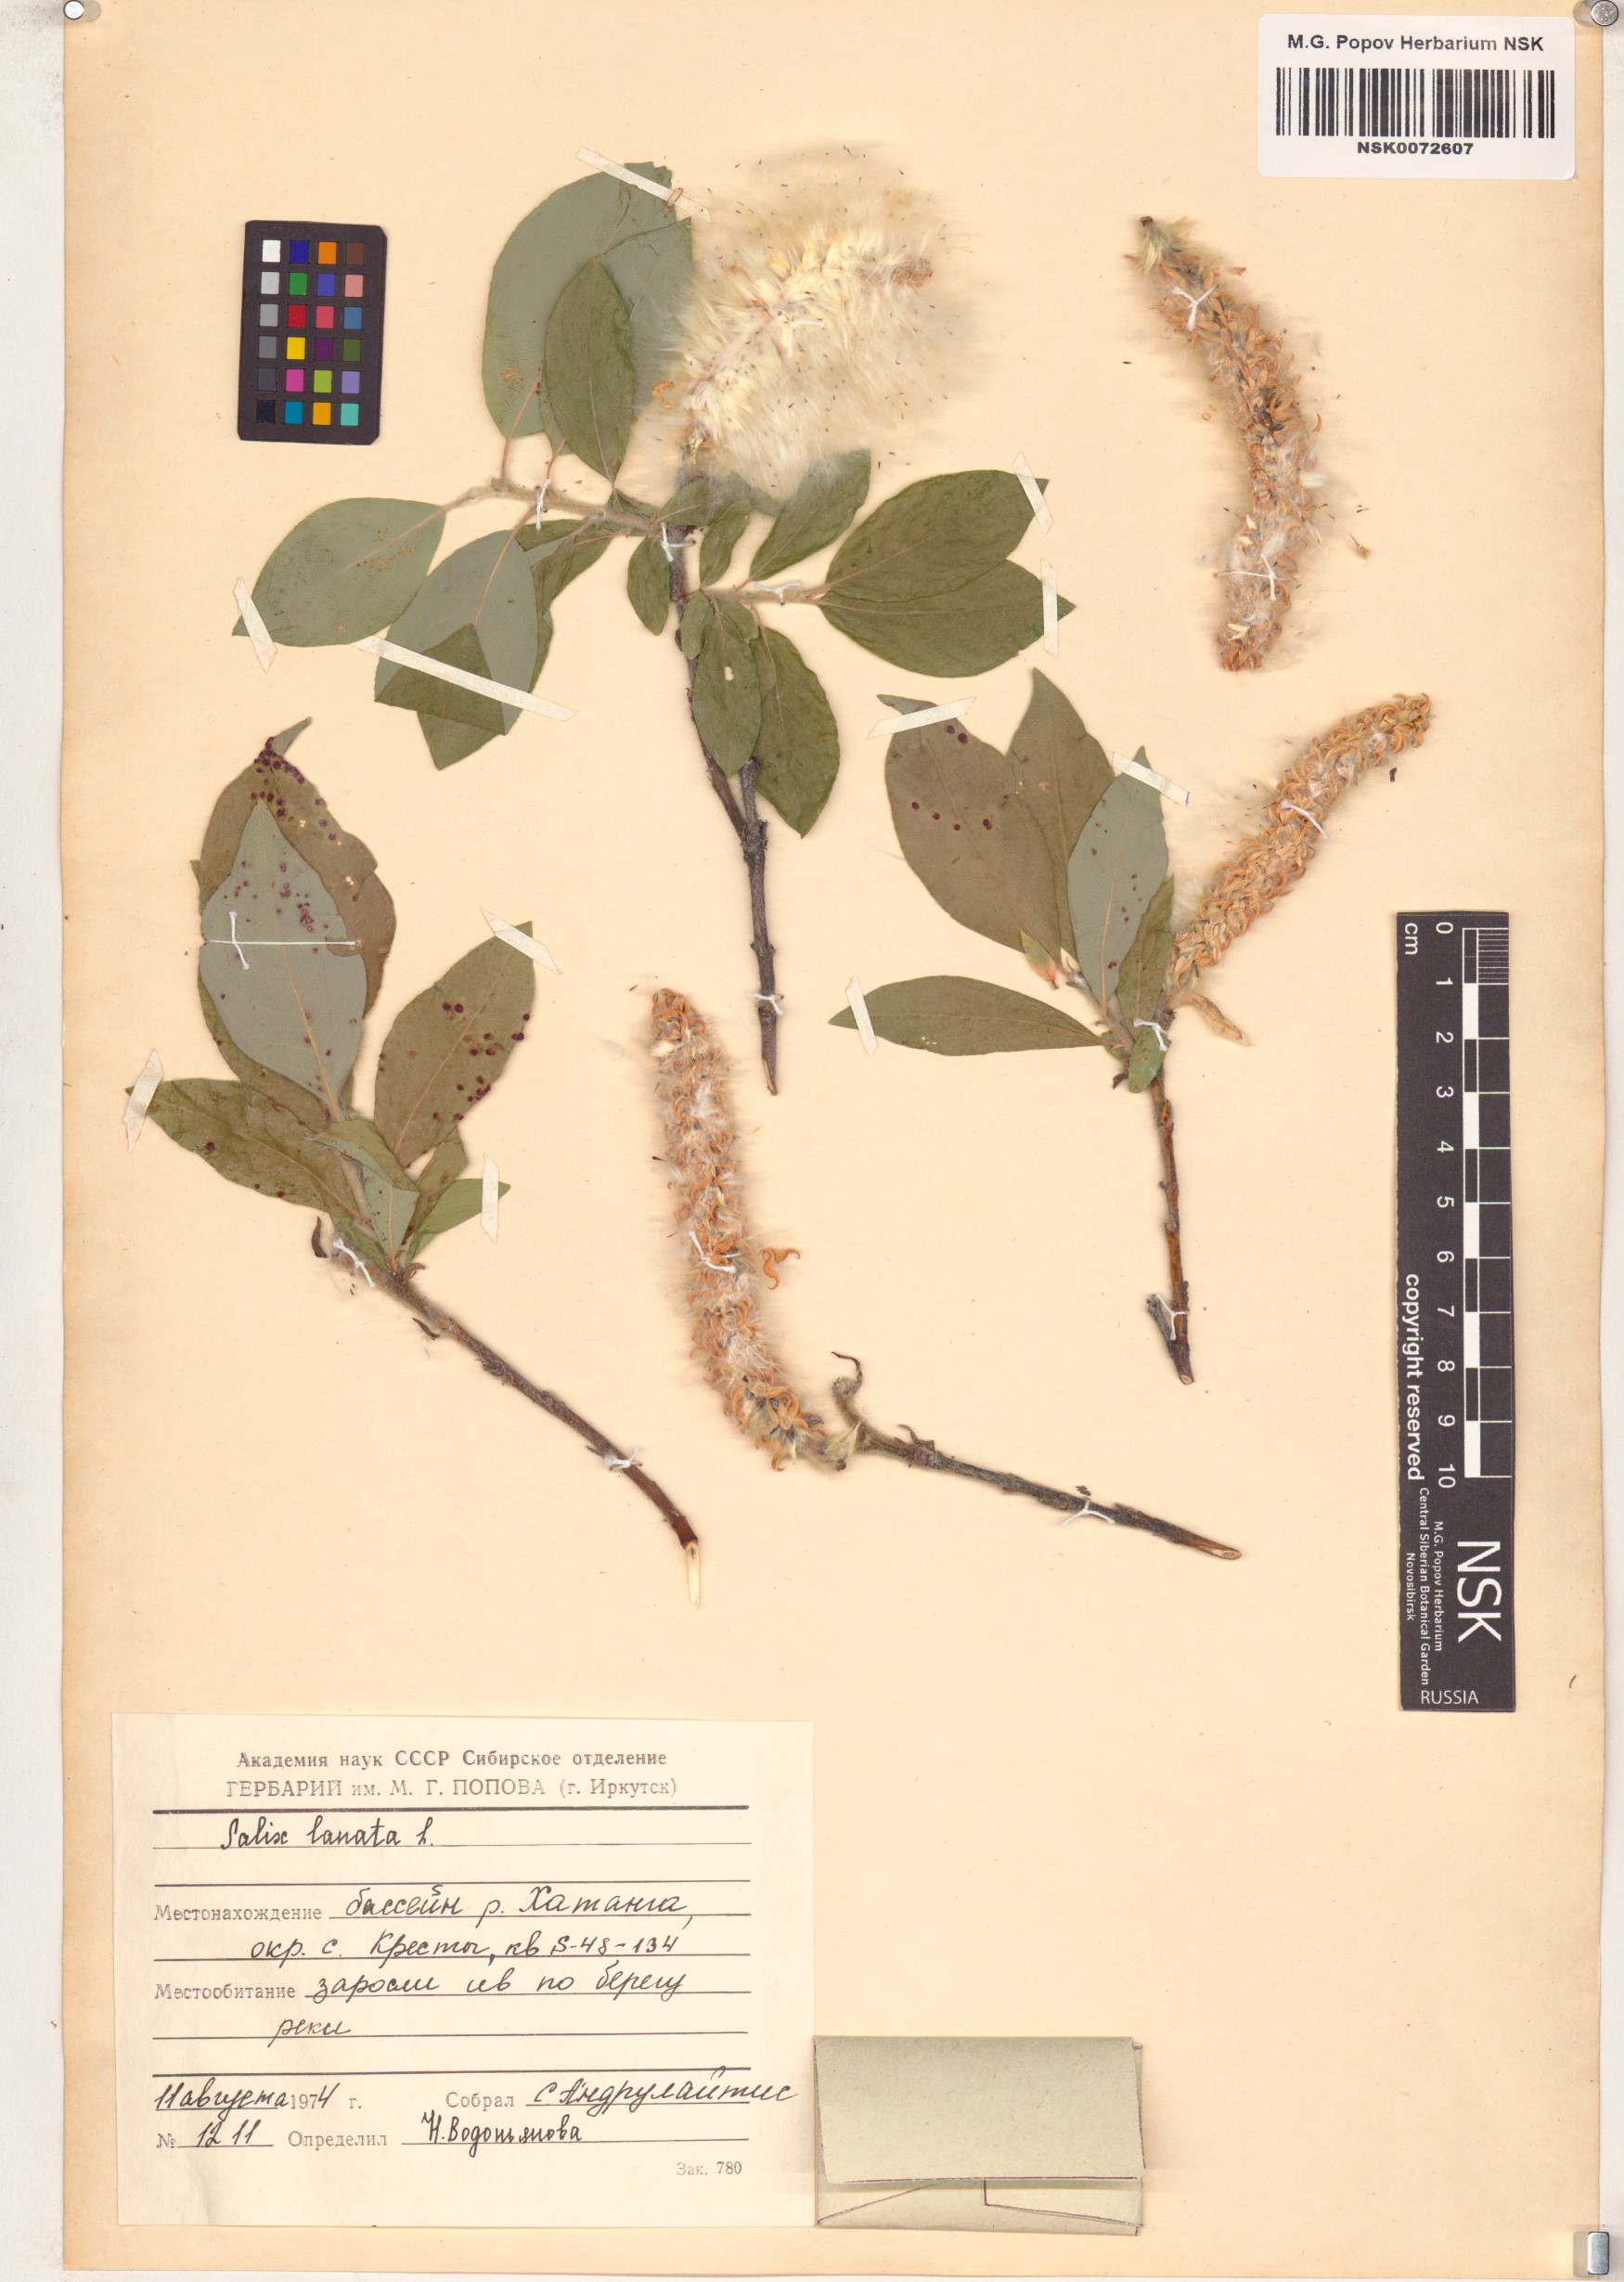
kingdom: Plantae
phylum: Tracheophyta
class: Magnoliopsida
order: Malpighiales
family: Salicaceae
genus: Salix
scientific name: Salix lanata
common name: Woolly willow
